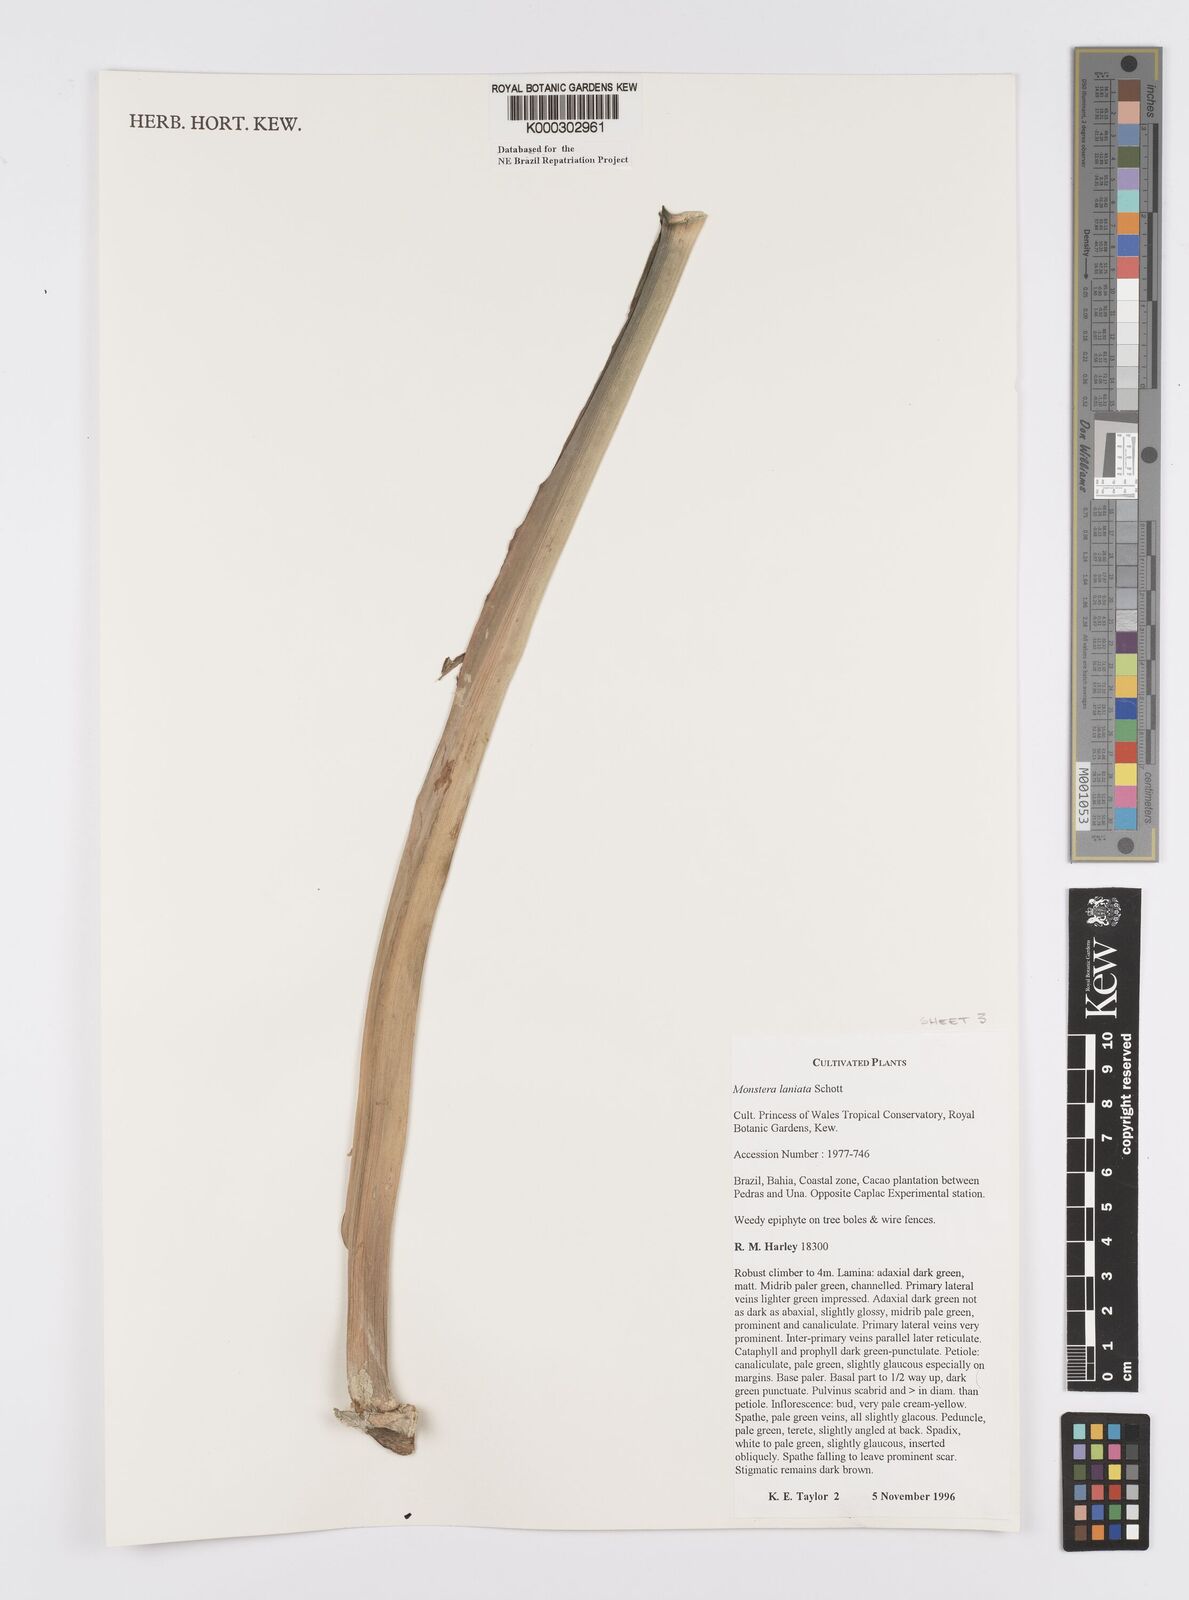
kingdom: Plantae
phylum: Tracheophyta
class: Liliopsida
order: Alismatales
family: Araceae
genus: Monstera
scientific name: Monstera adansonii
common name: Tarovine
